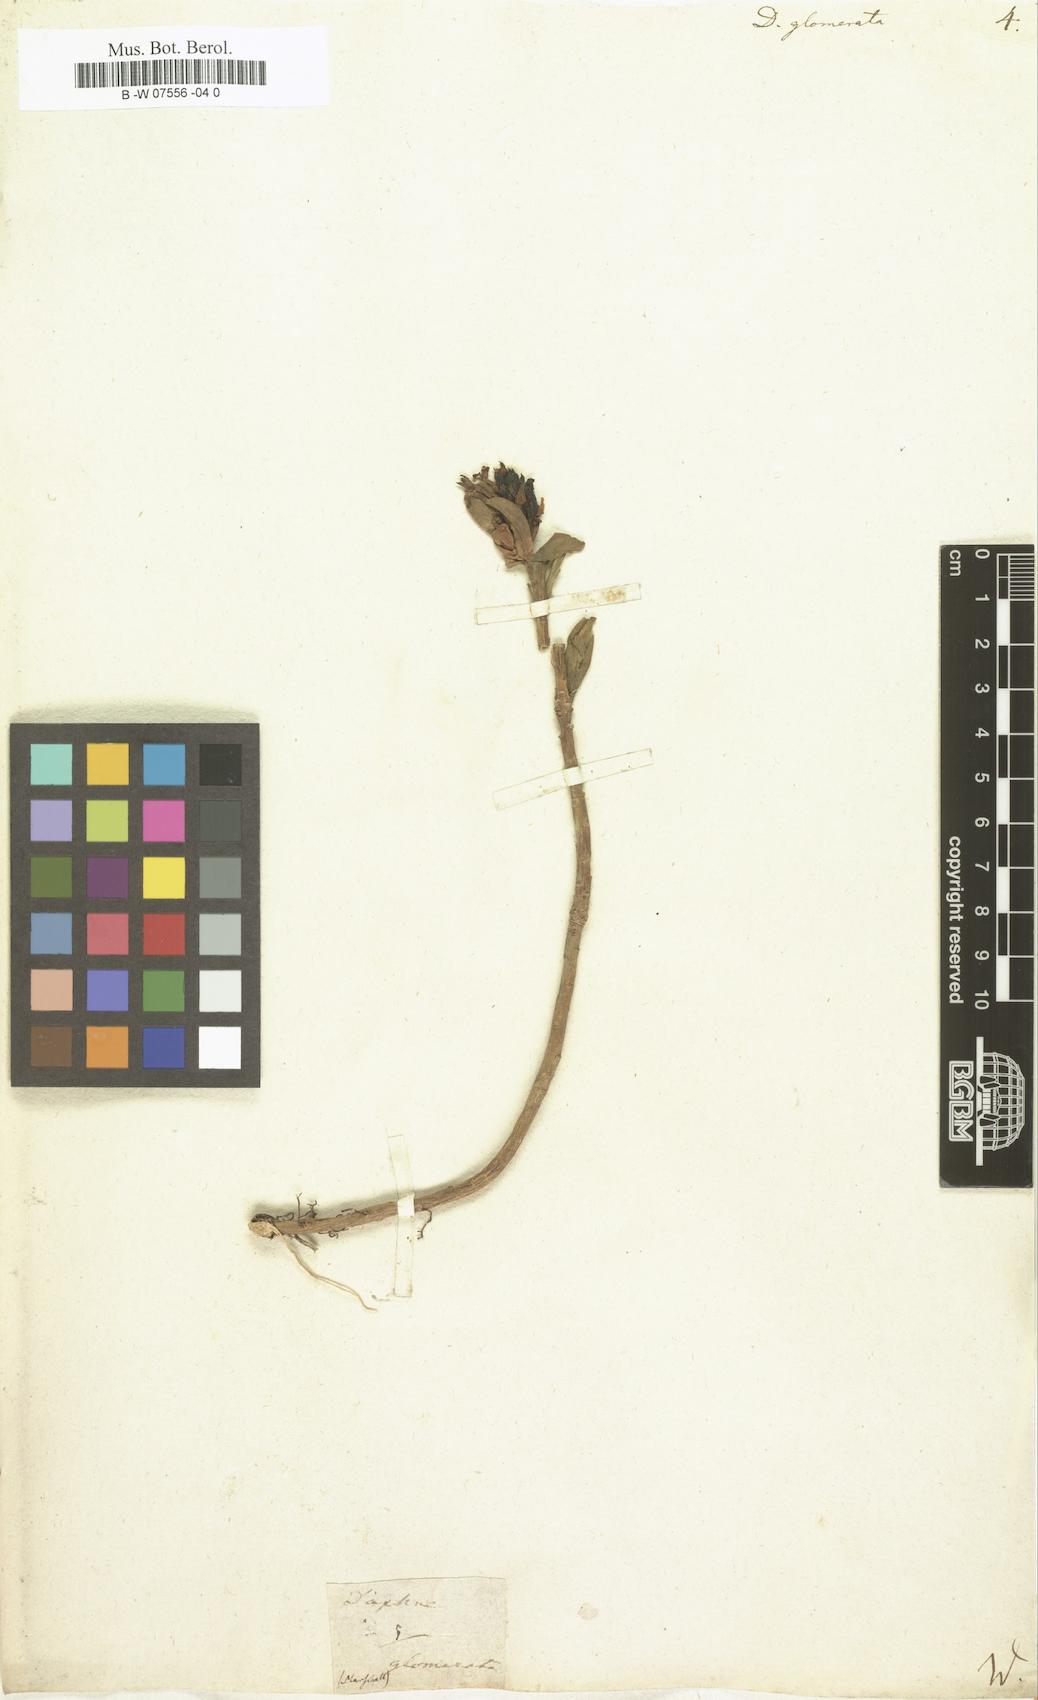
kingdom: Plantae
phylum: Tracheophyta
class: Magnoliopsida
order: Malvales
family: Thymelaeaceae
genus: Daphne
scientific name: Daphne glomerata
